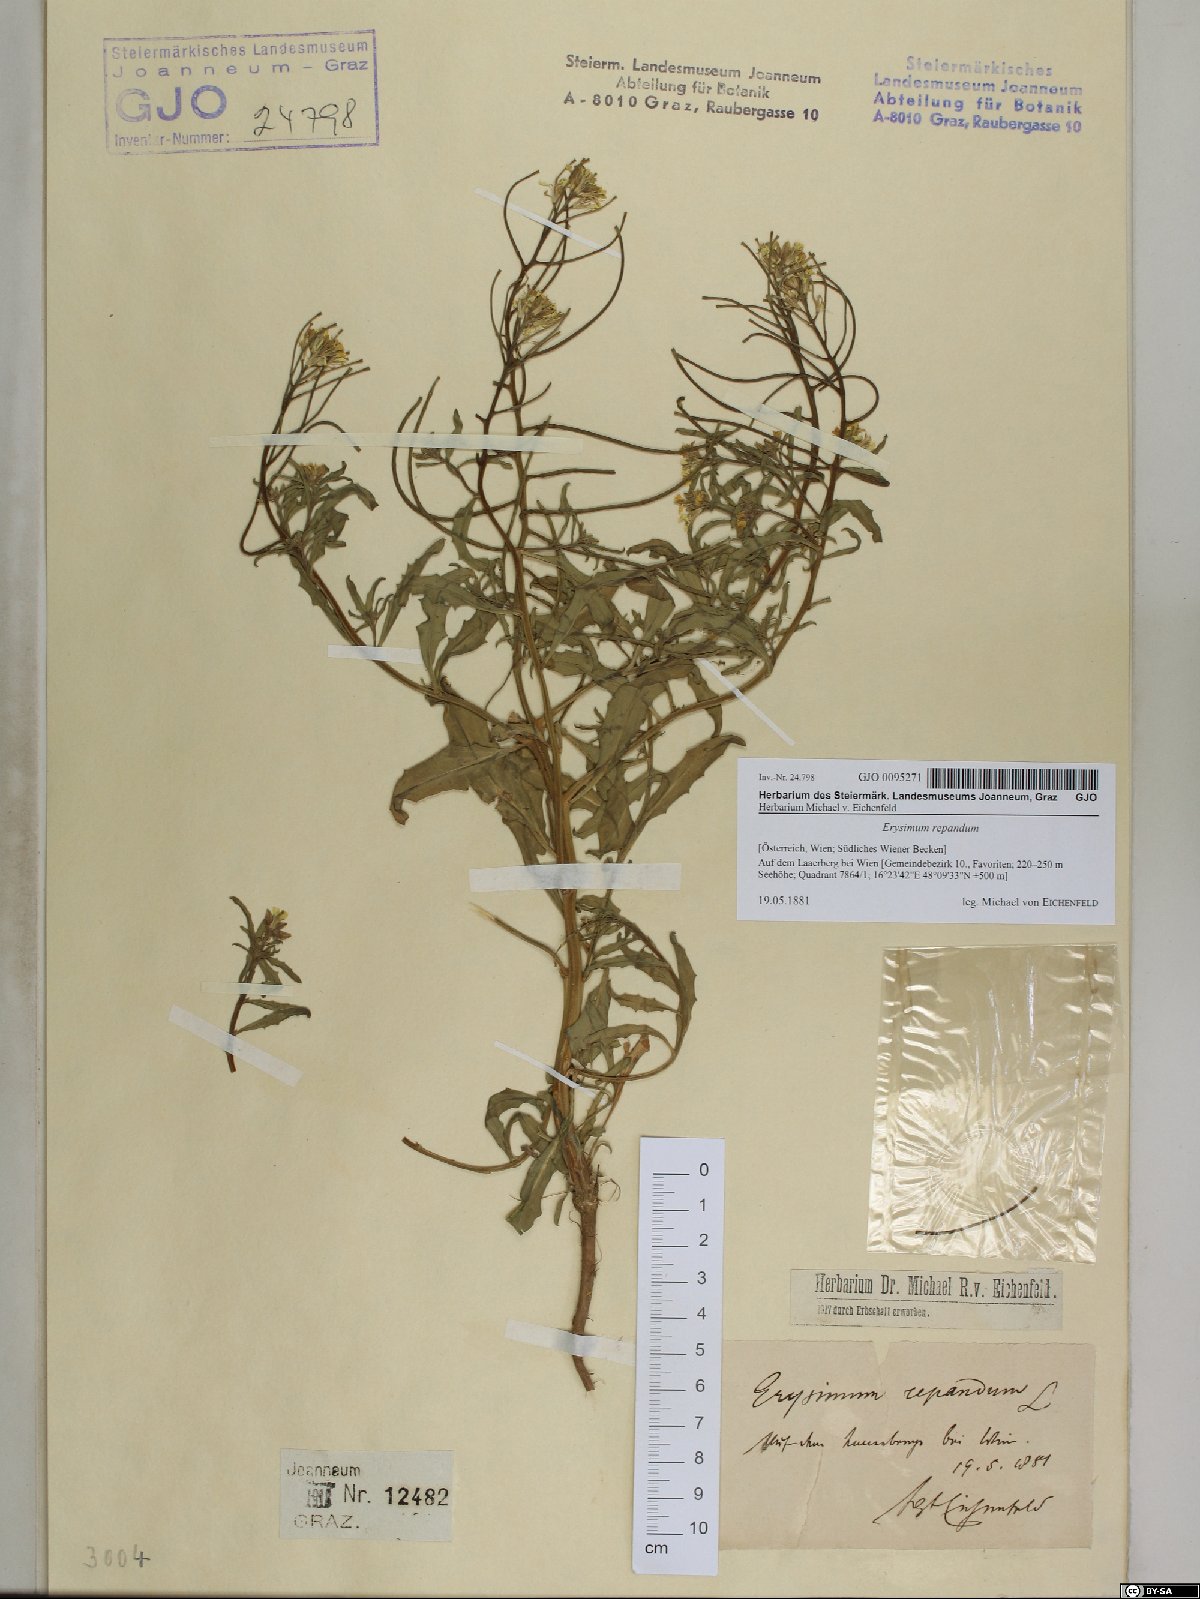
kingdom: Plantae
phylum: Tracheophyta
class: Magnoliopsida
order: Brassicales
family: Brassicaceae
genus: Erysimum
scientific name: Erysimum repandum
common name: Spreading wallflower
